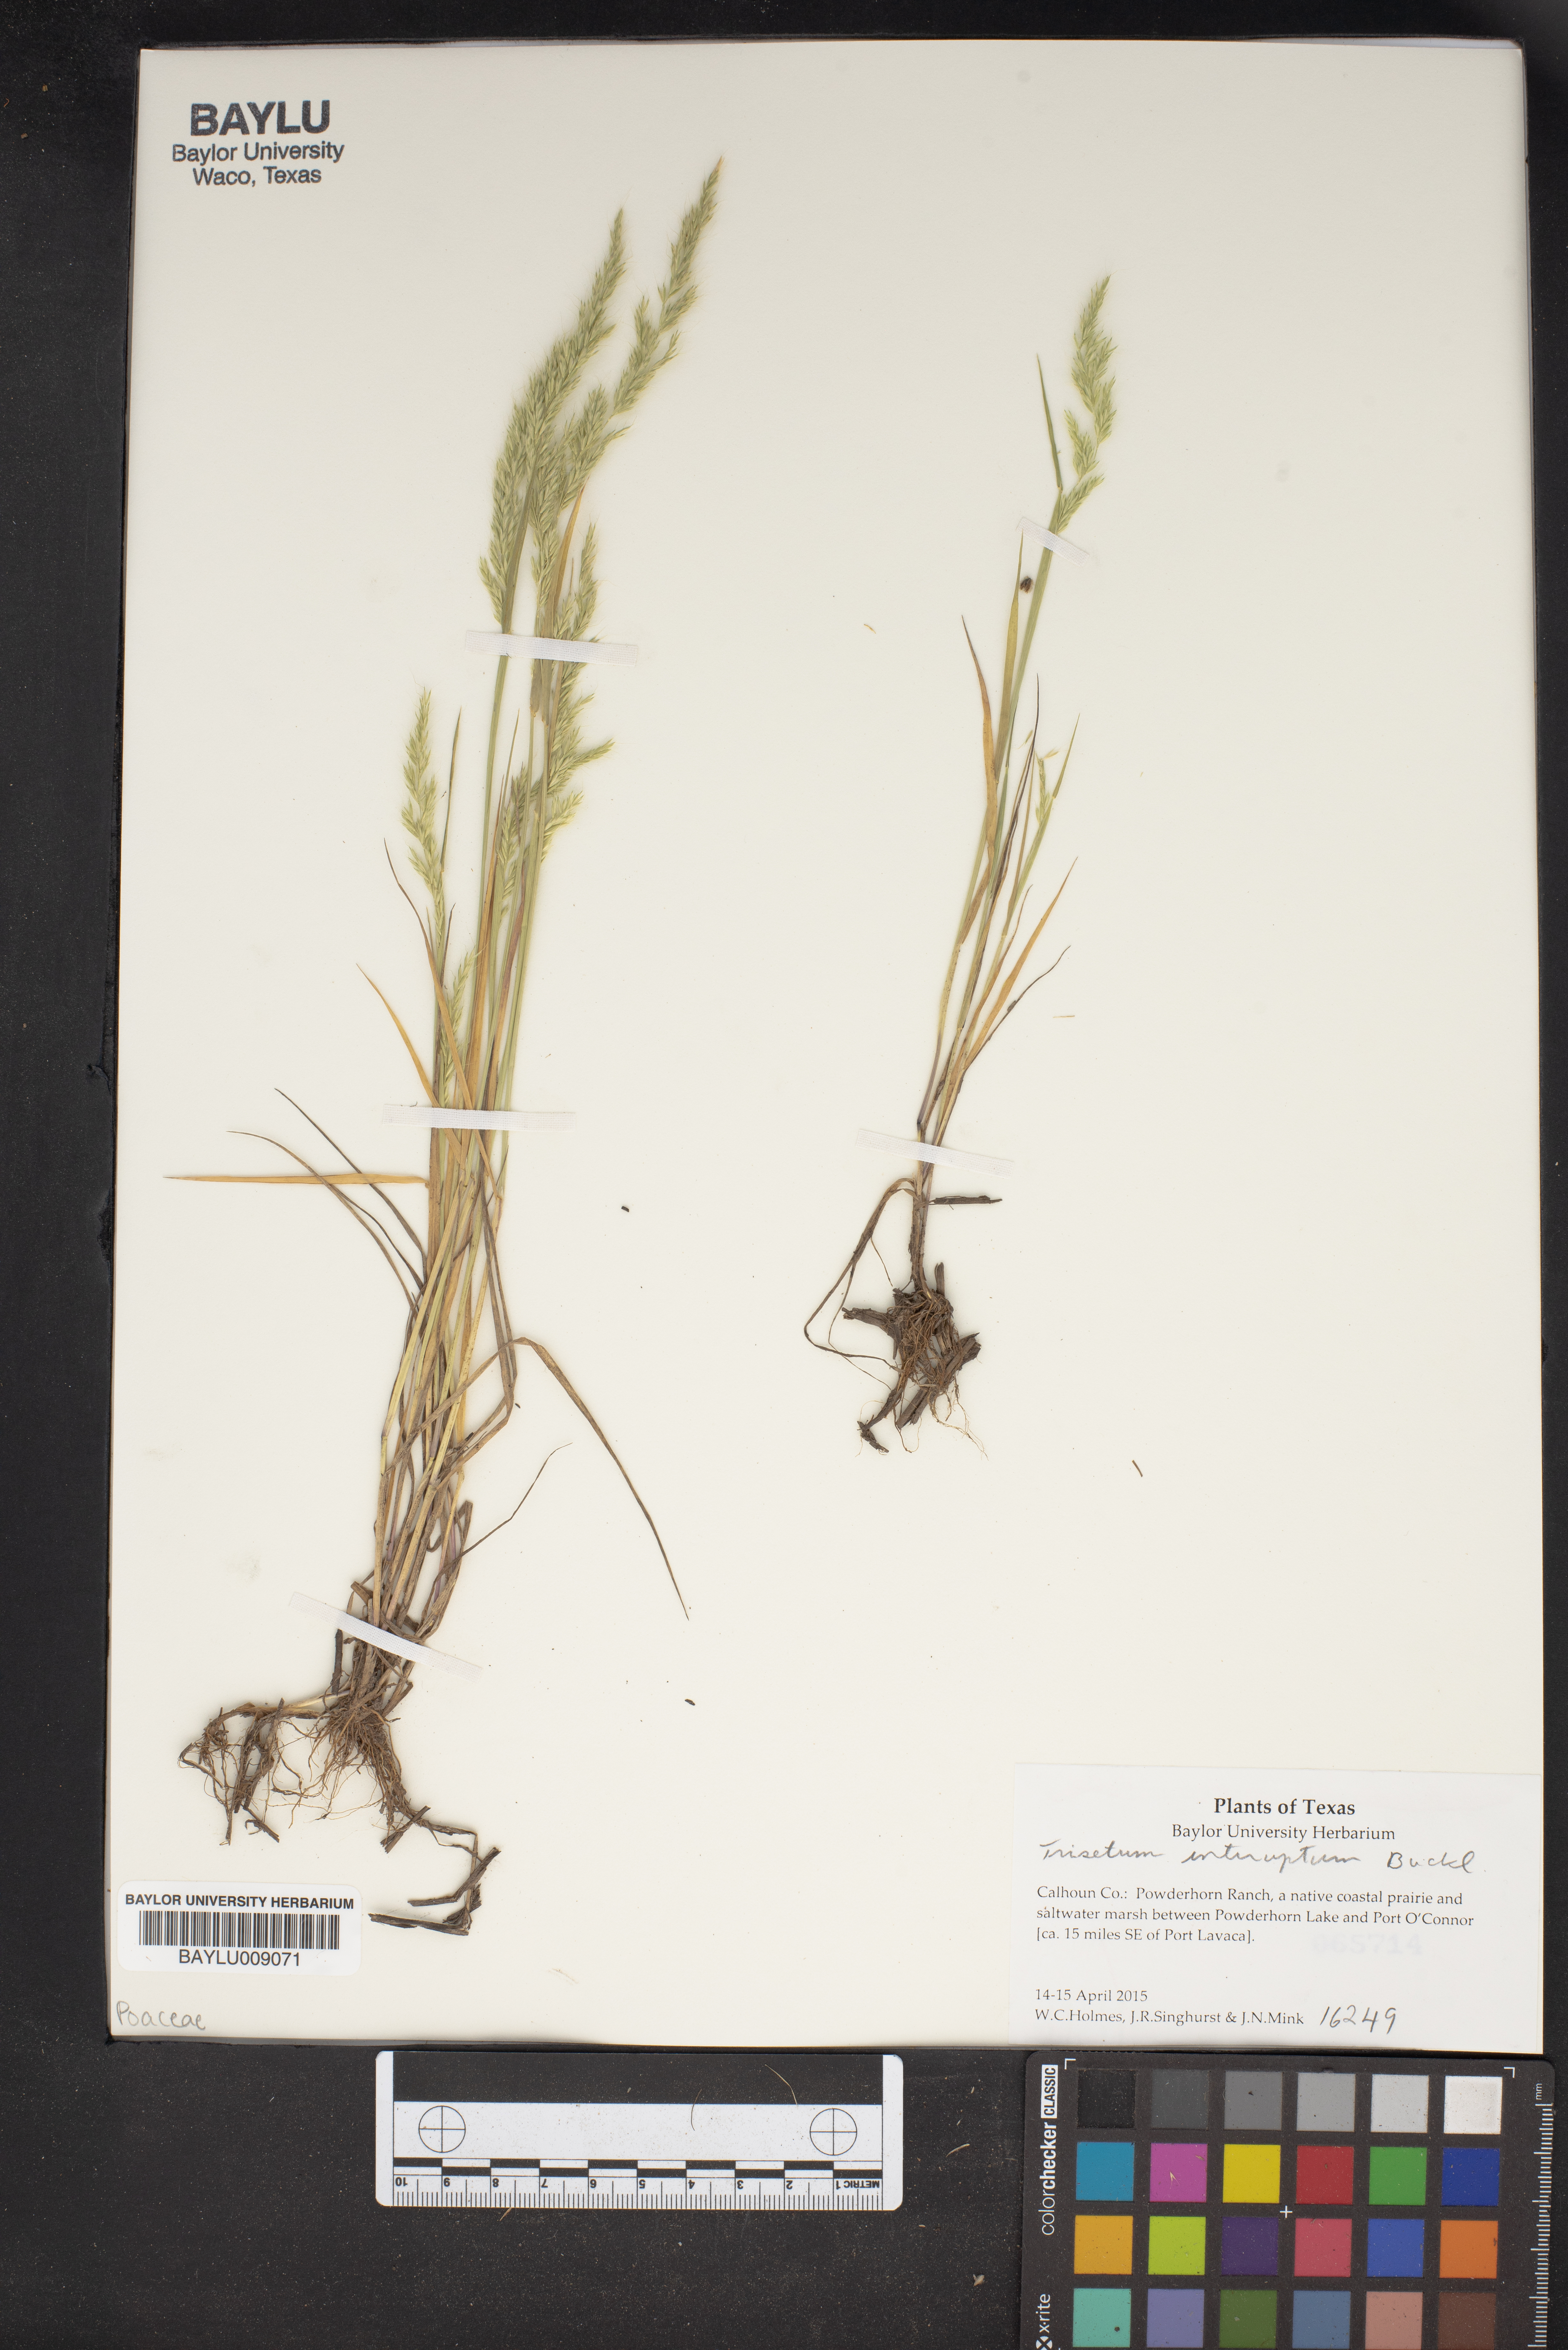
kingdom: Plantae
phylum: Tracheophyta
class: Liliopsida
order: Poales
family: Poaceae
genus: Sphenopholis
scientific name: Sphenopholis interrupta
